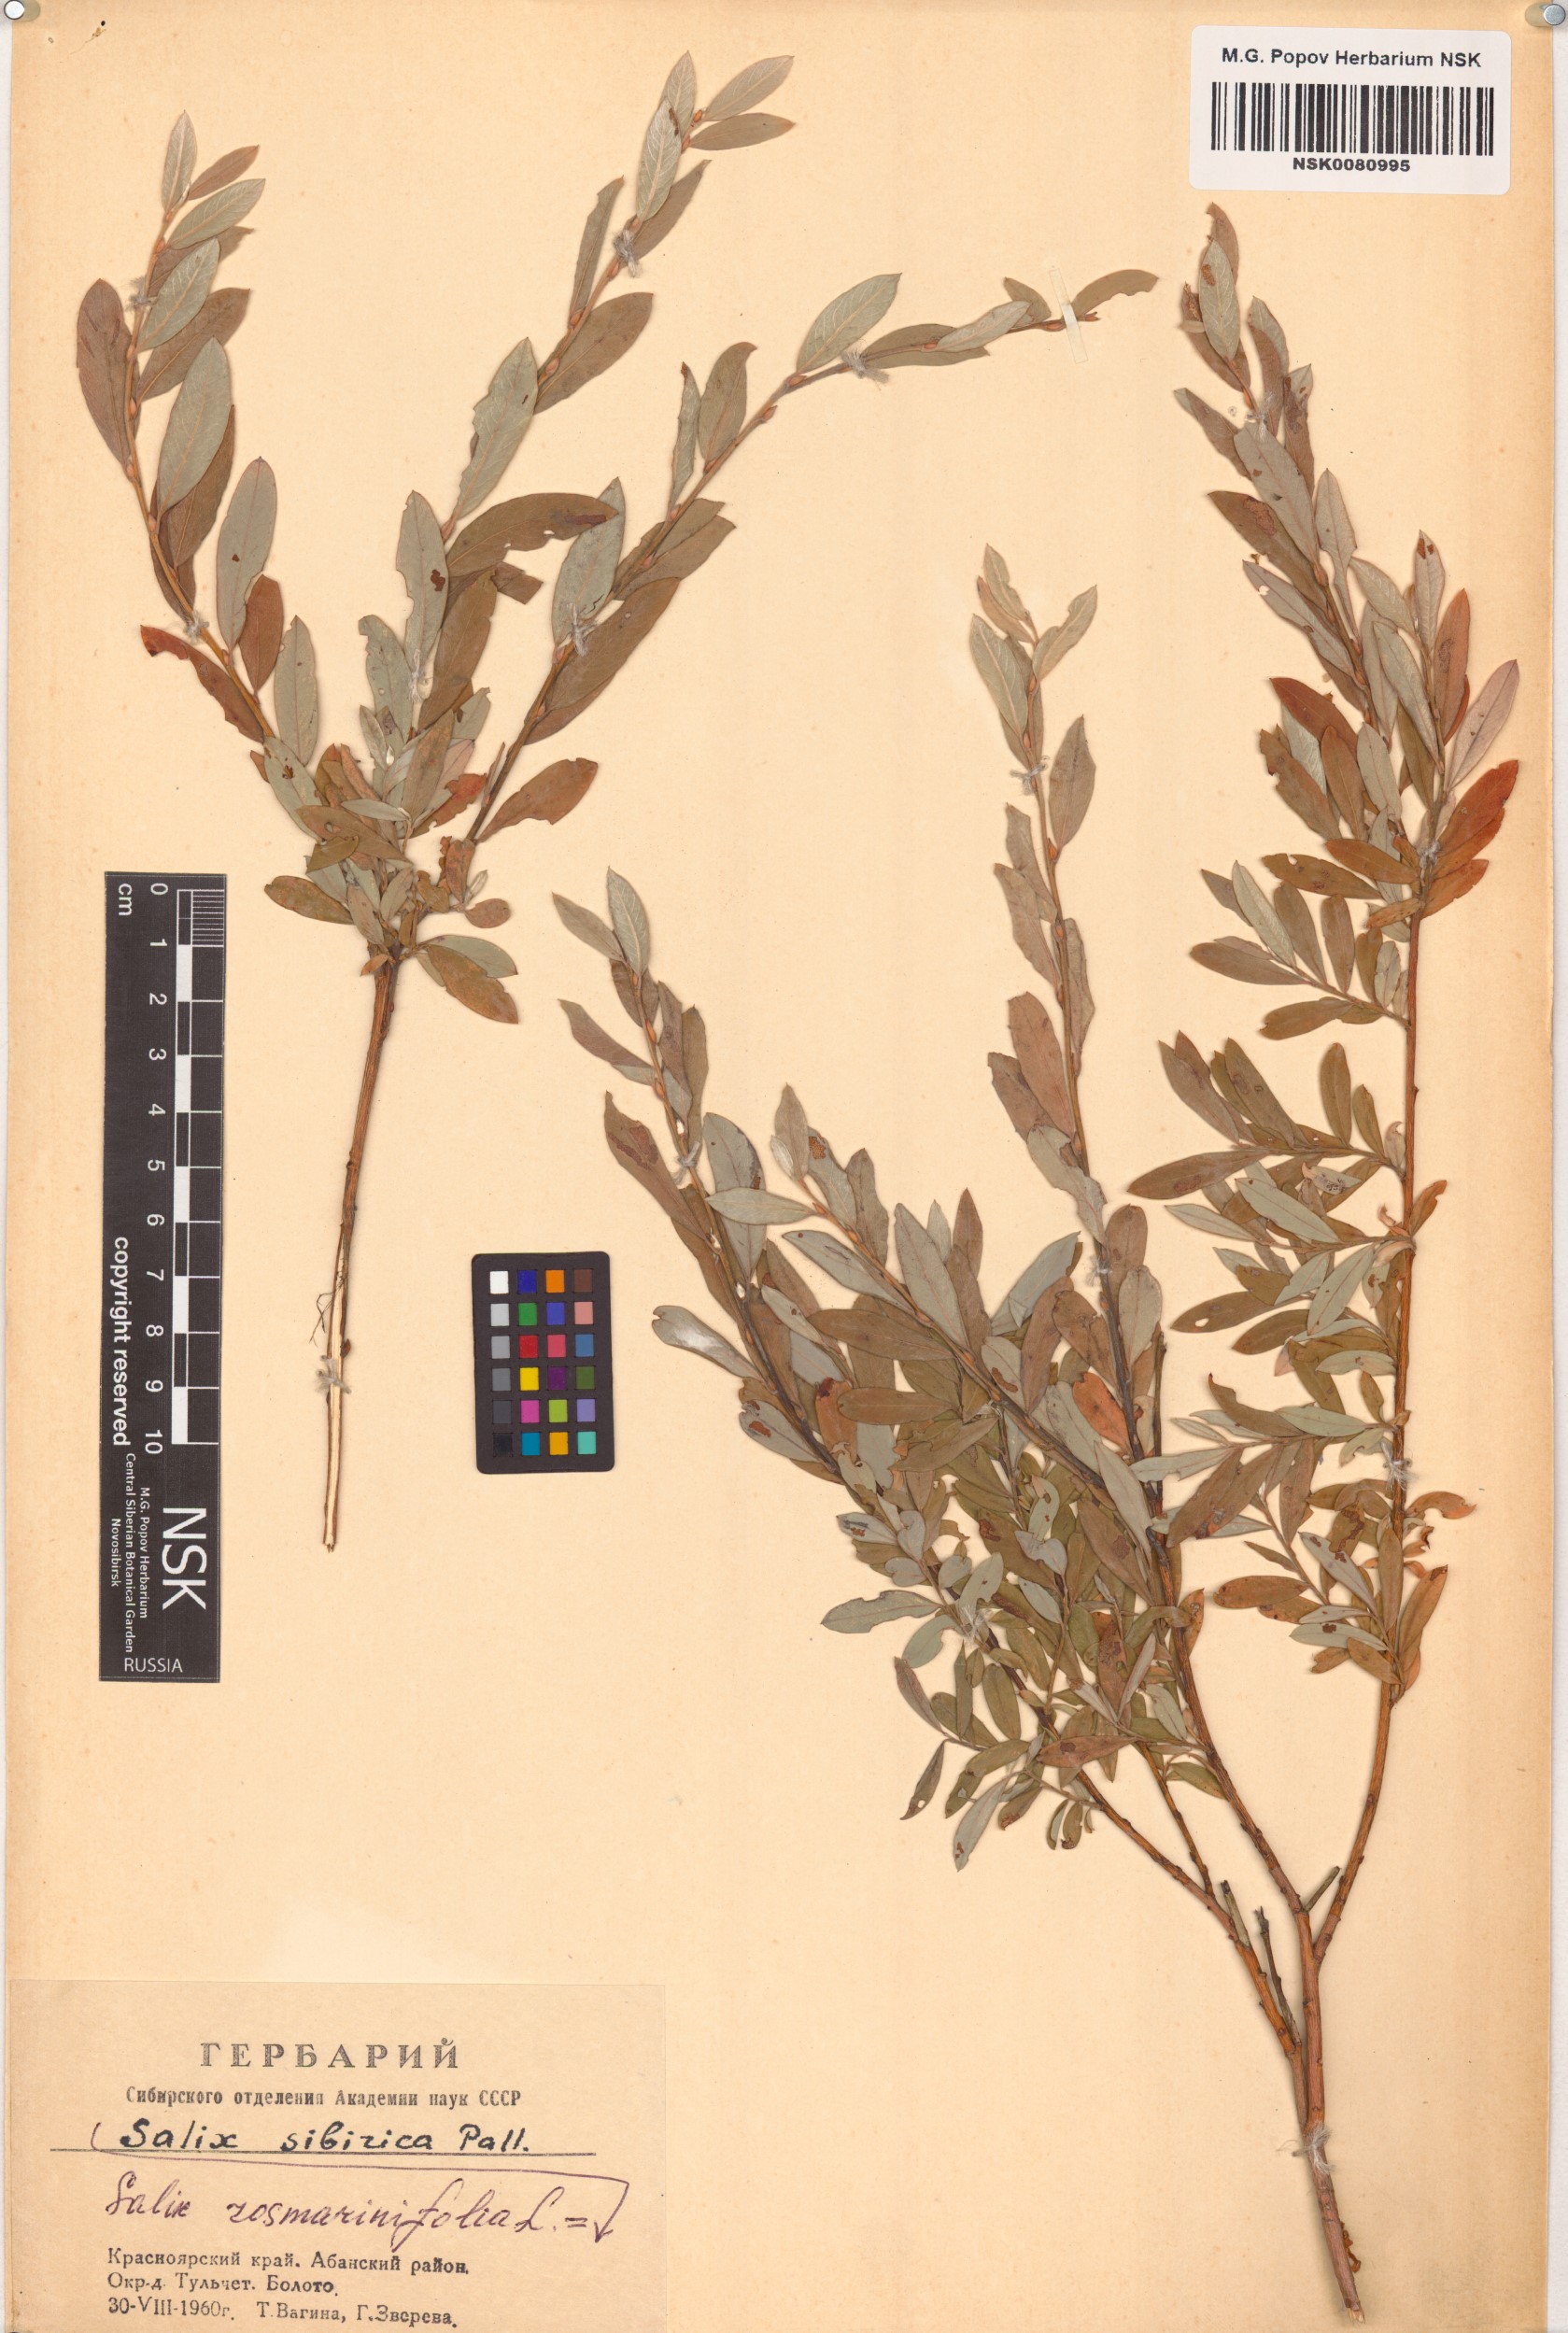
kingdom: Plantae
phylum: Tracheophyta
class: Magnoliopsida
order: Malpighiales
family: Salicaceae
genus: Salix
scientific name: Salix rosmarinifolia
